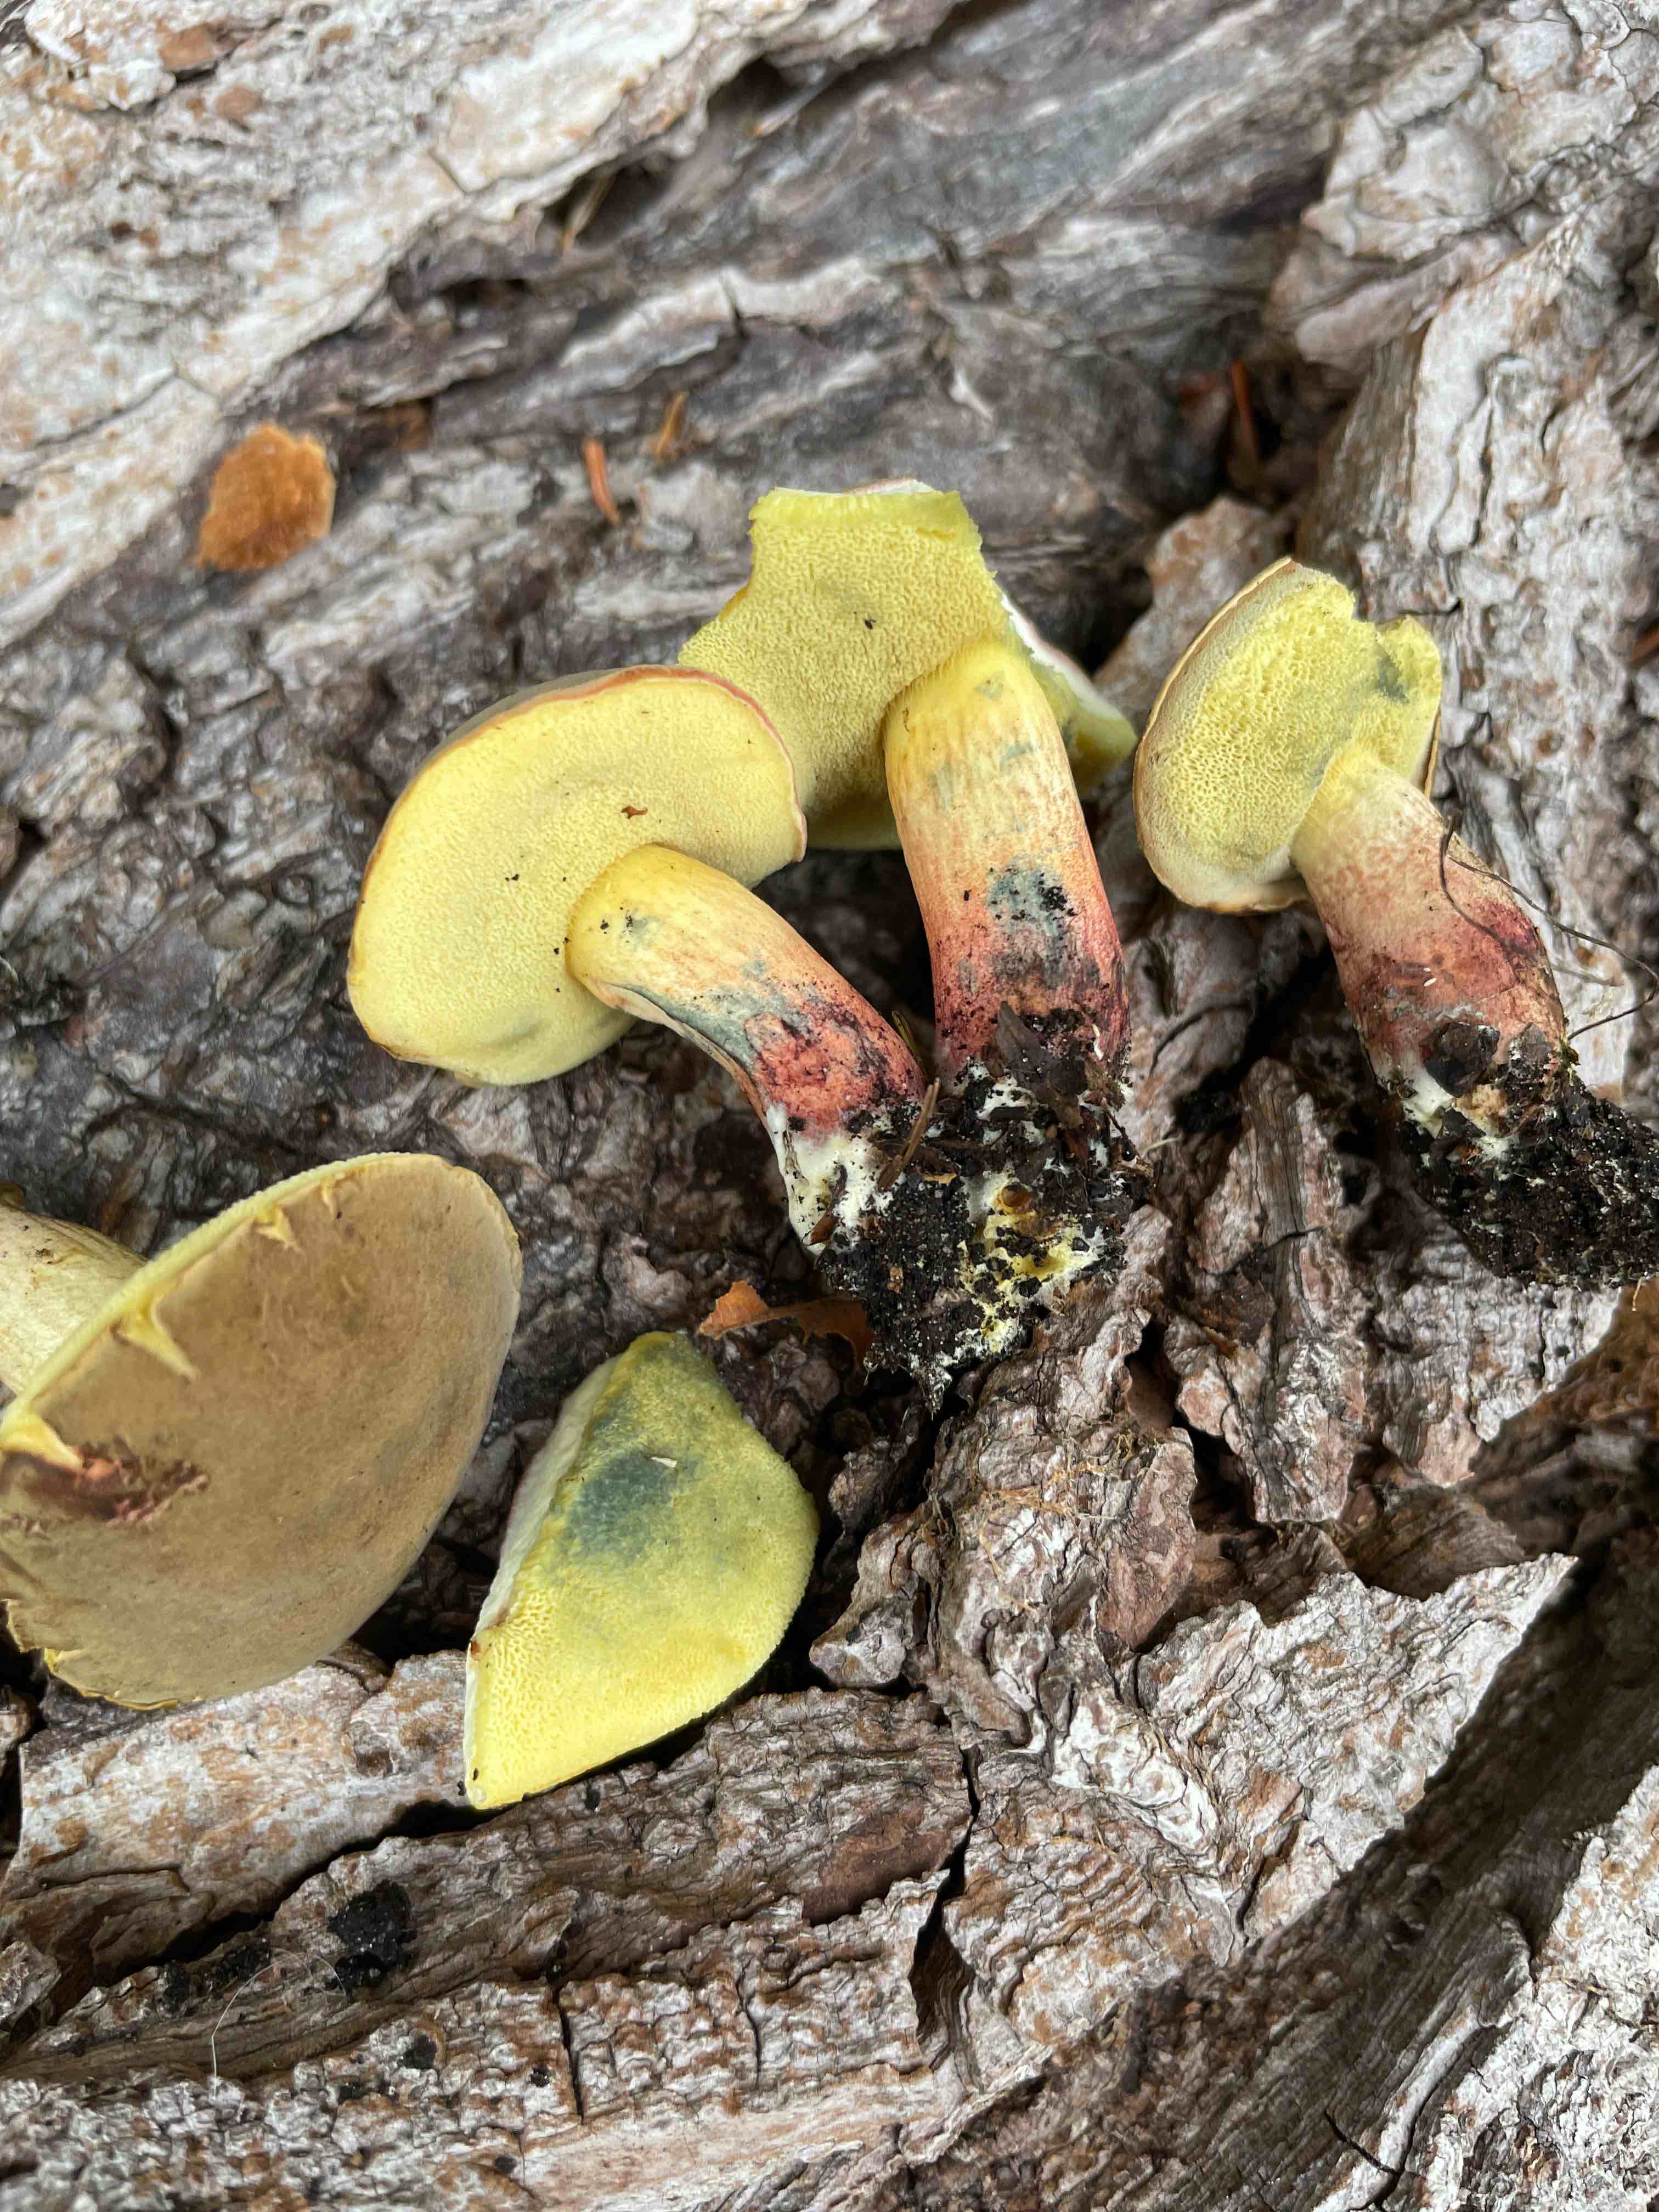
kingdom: Fungi
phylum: Basidiomycota
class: Agaricomycetes
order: Boletales
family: Boletaceae
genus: Xerocomellus
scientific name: Xerocomellus
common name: dværgrørhat
